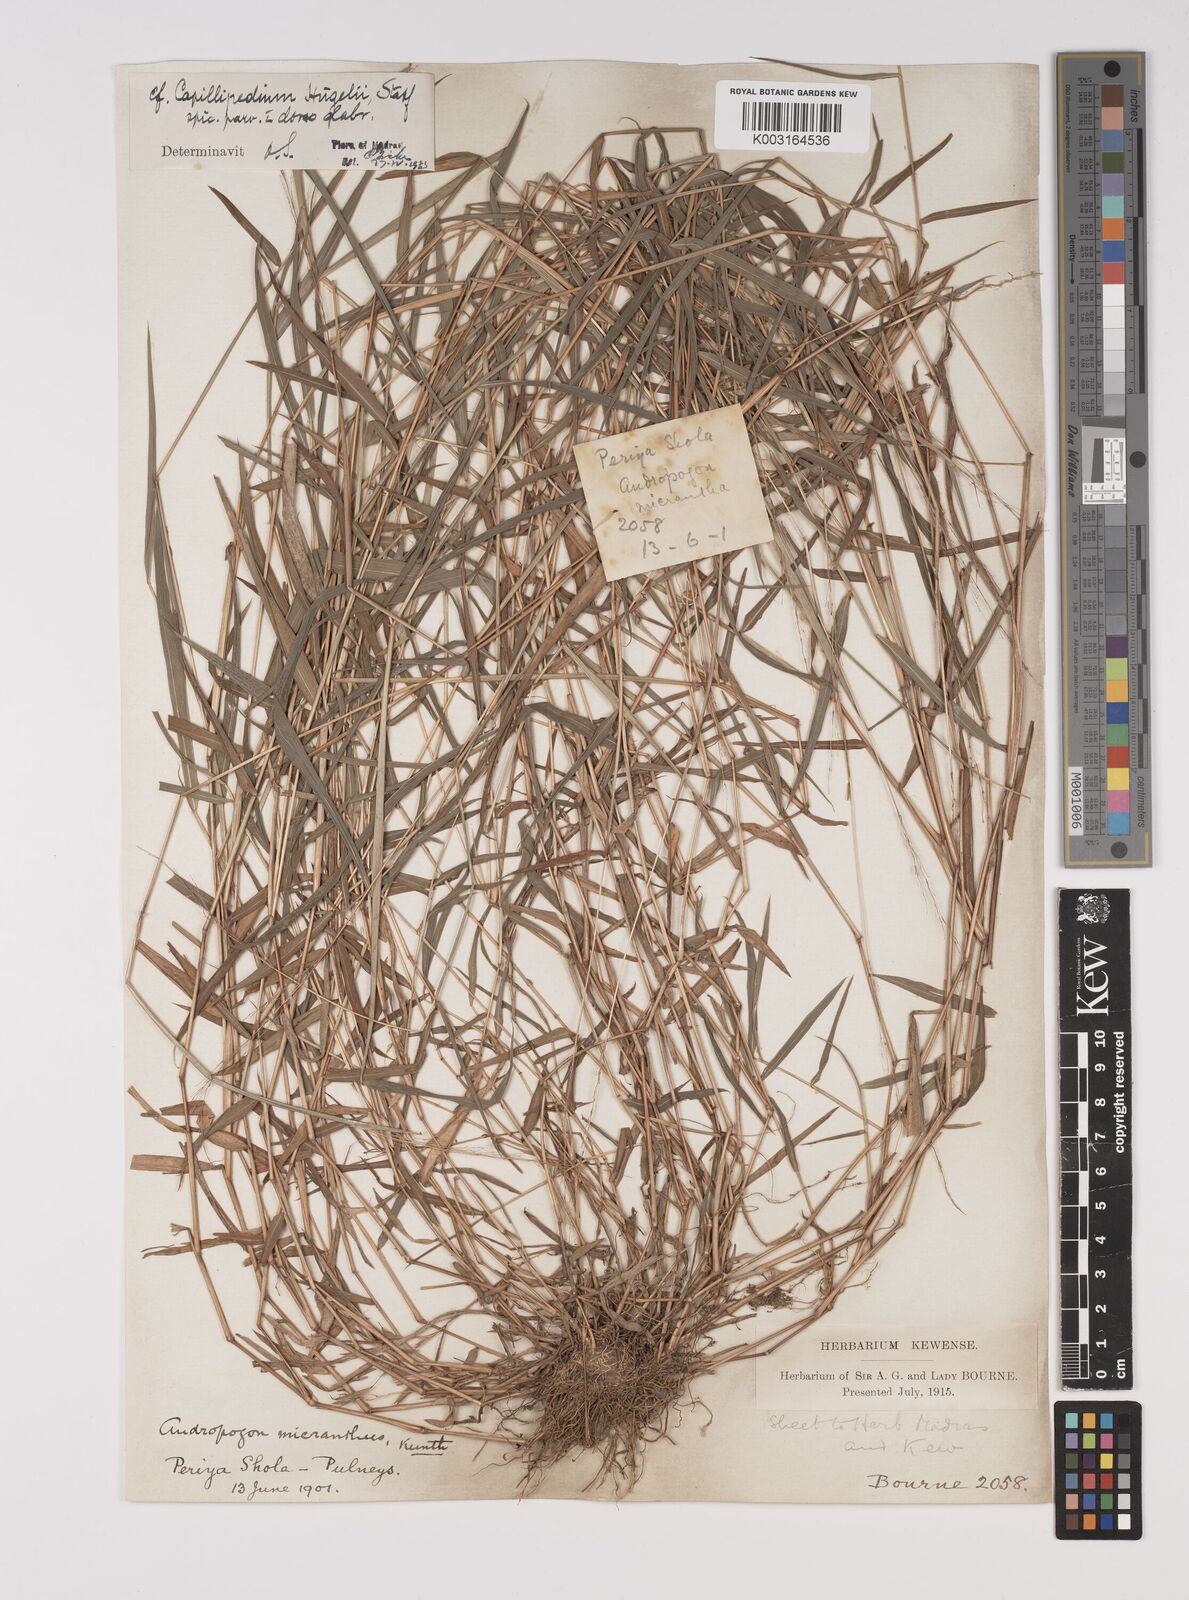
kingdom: Plantae
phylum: Tracheophyta
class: Liliopsida
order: Poales
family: Poaceae
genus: Capillipedium
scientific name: Capillipedium huegelii
